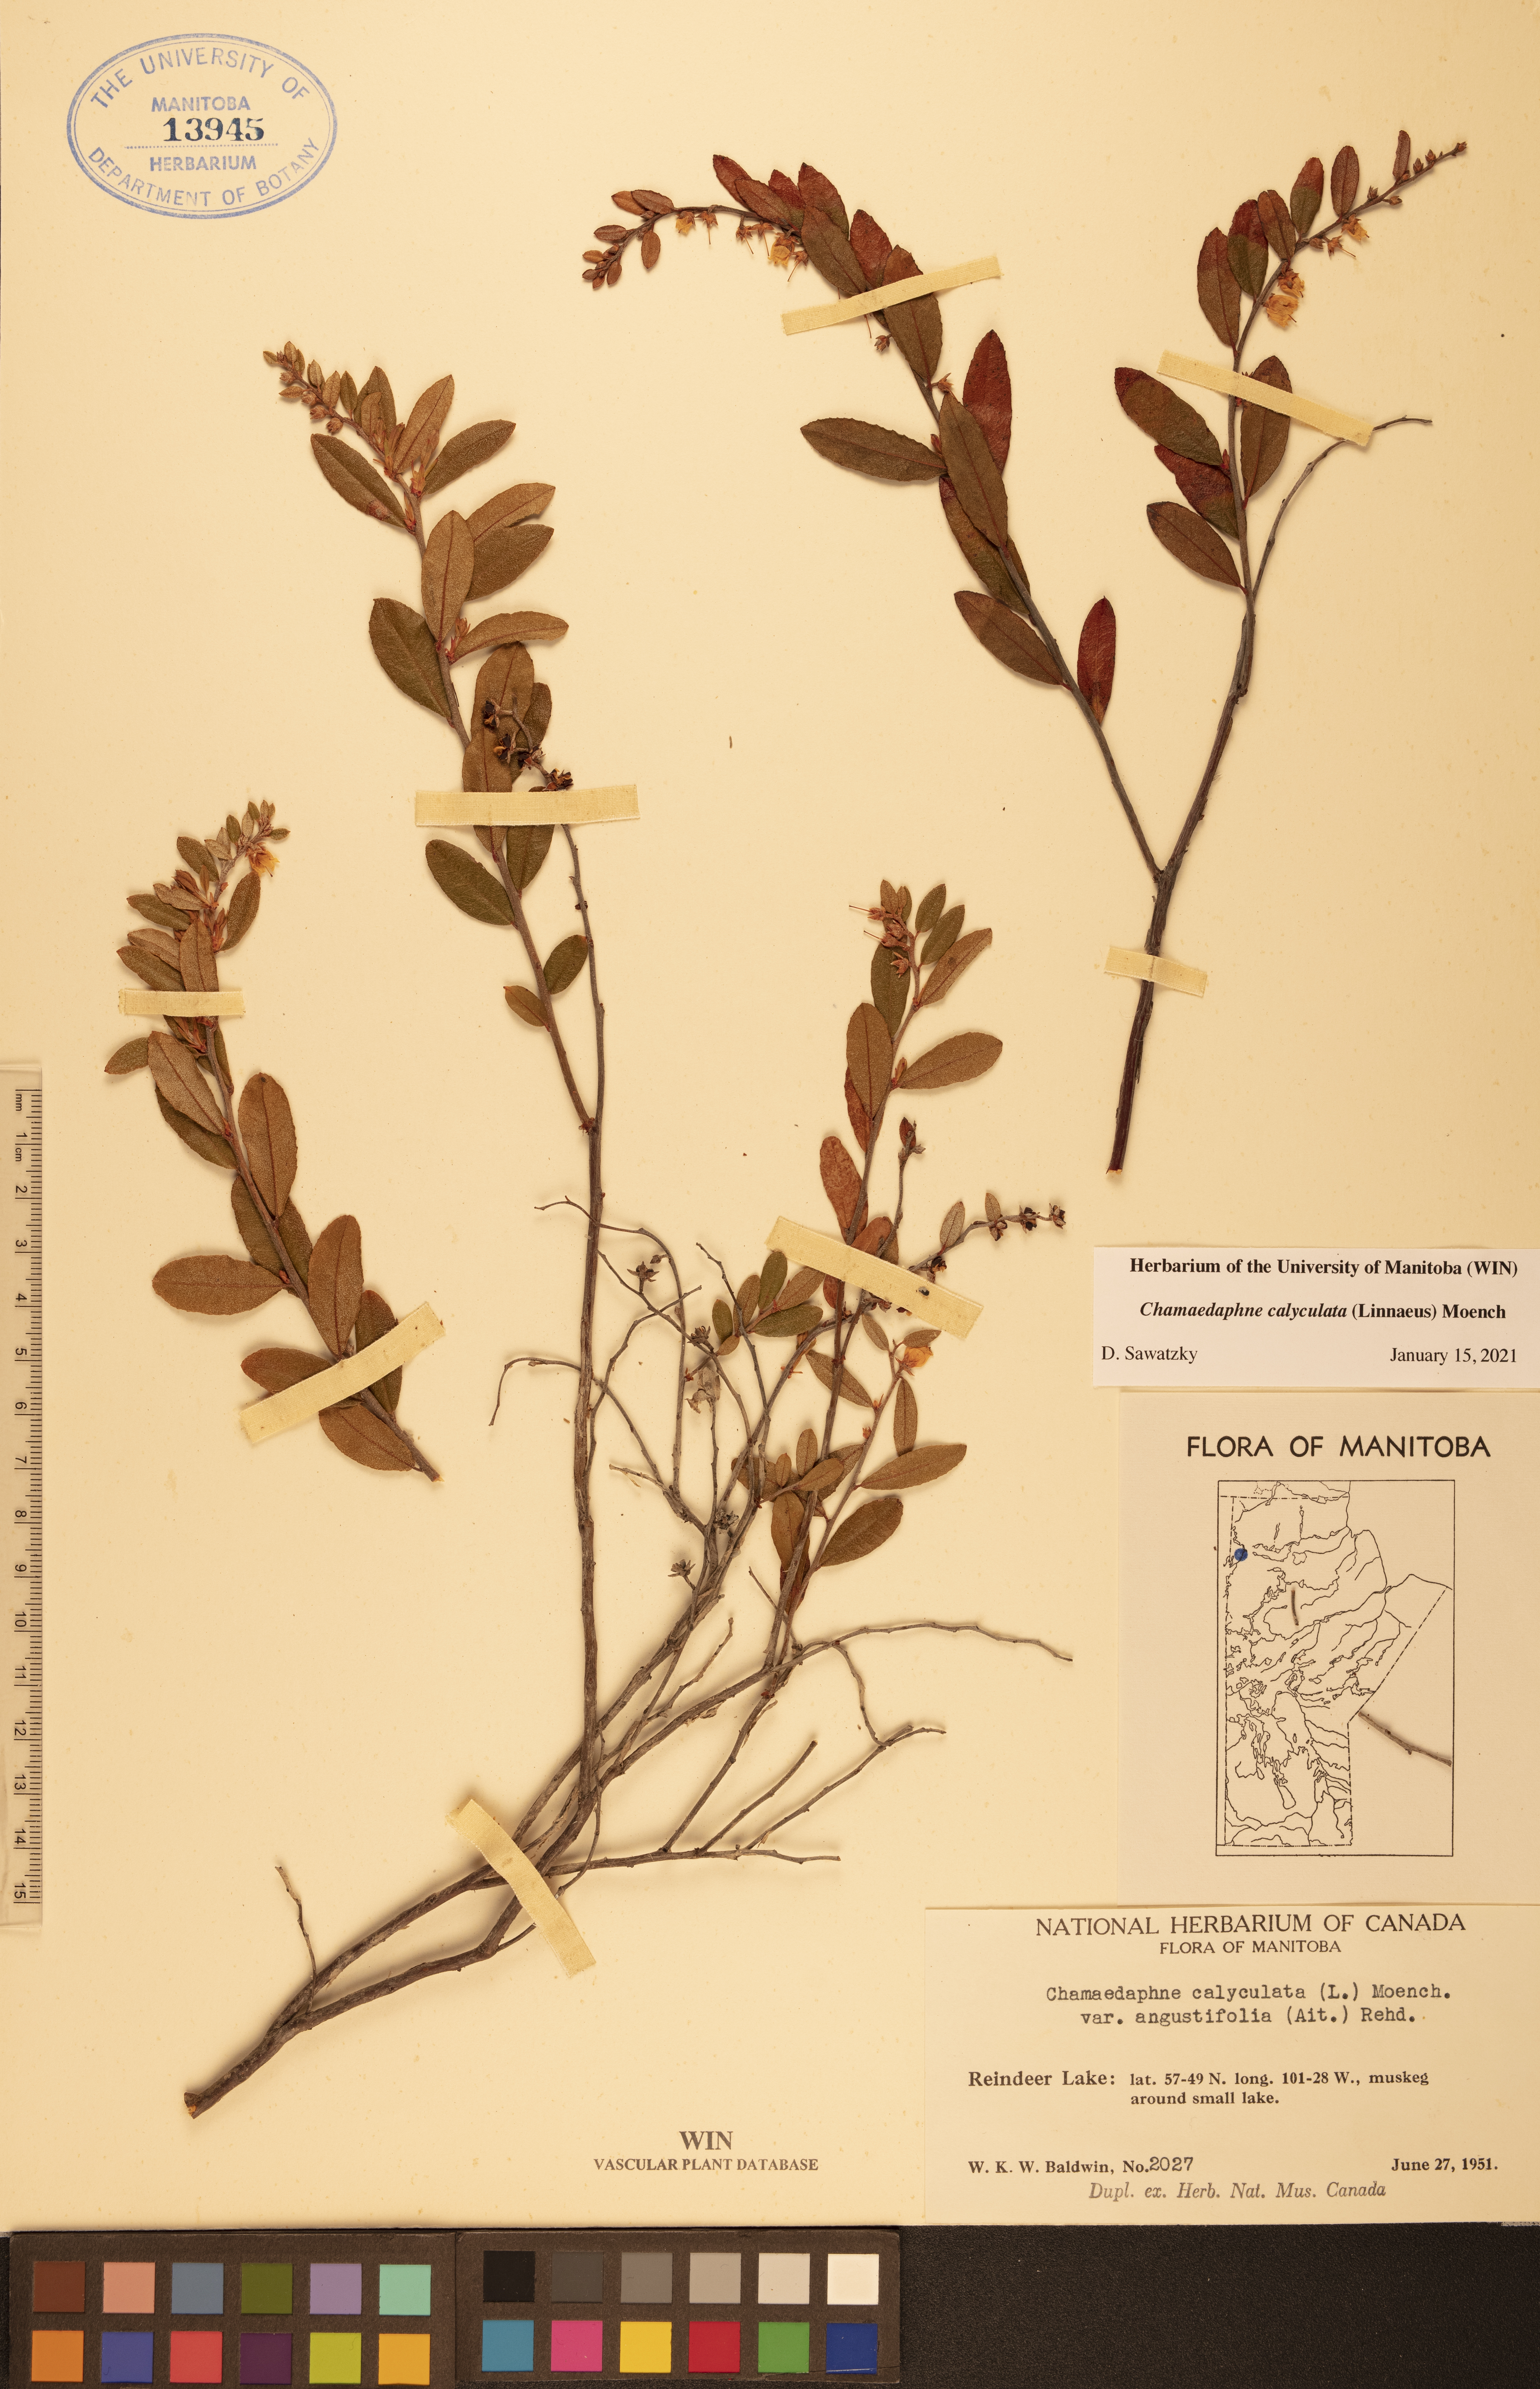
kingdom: Plantae
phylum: Tracheophyta
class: Magnoliopsida
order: Ericales
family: Ericaceae
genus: Chamaedaphne
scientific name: Chamaedaphne calyculata
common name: Leatherleaf
